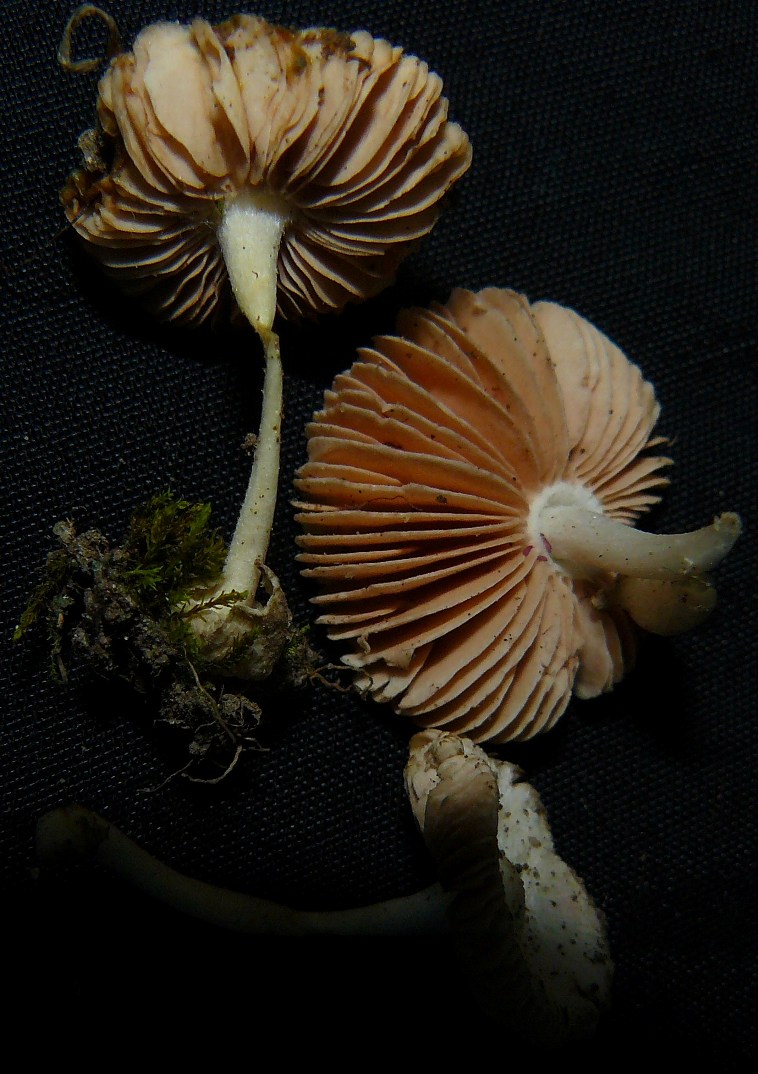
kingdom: Fungi
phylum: Basidiomycota
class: Agaricomycetes
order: Agaricales
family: Pluteaceae
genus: Volvariella
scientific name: Volvariella pusilla
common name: liden posesvamp
